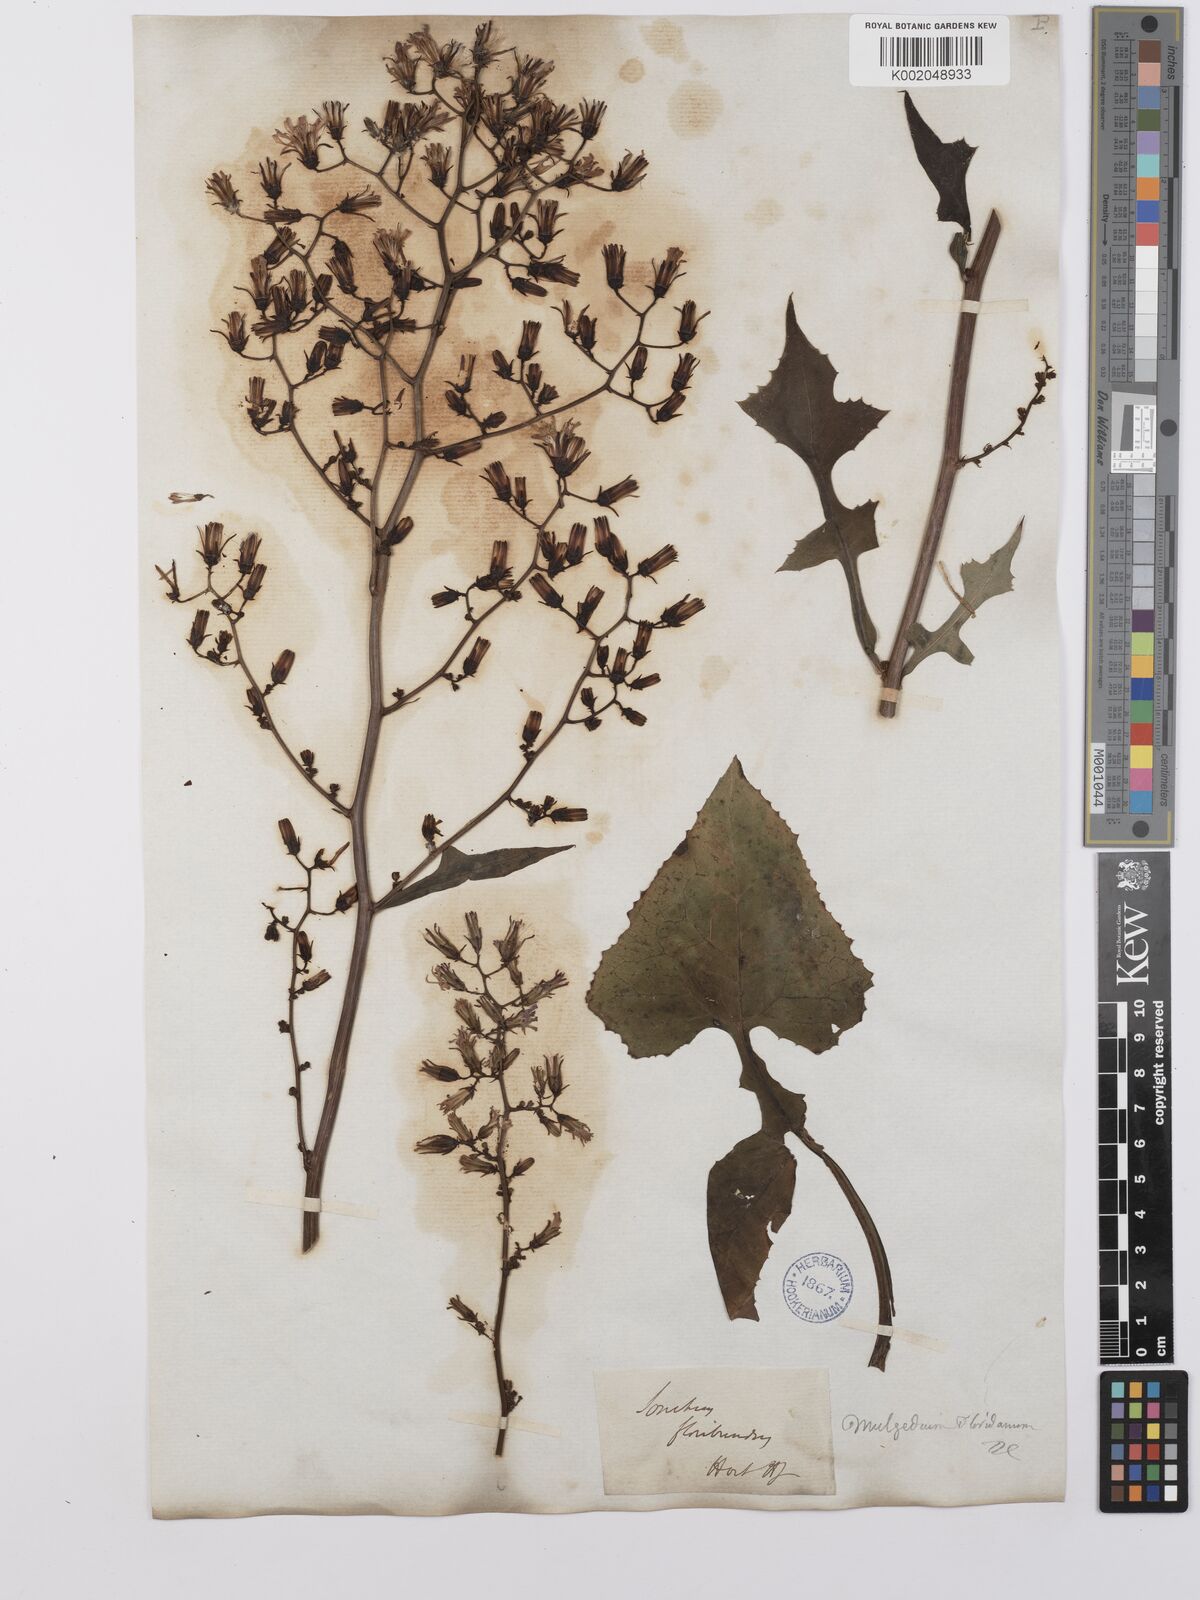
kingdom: Plantae
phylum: Tracheophyta
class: Magnoliopsida
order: Asterales
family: Asteraceae
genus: Lactuca
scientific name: Lactuca floridana
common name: Woodland lettuce
